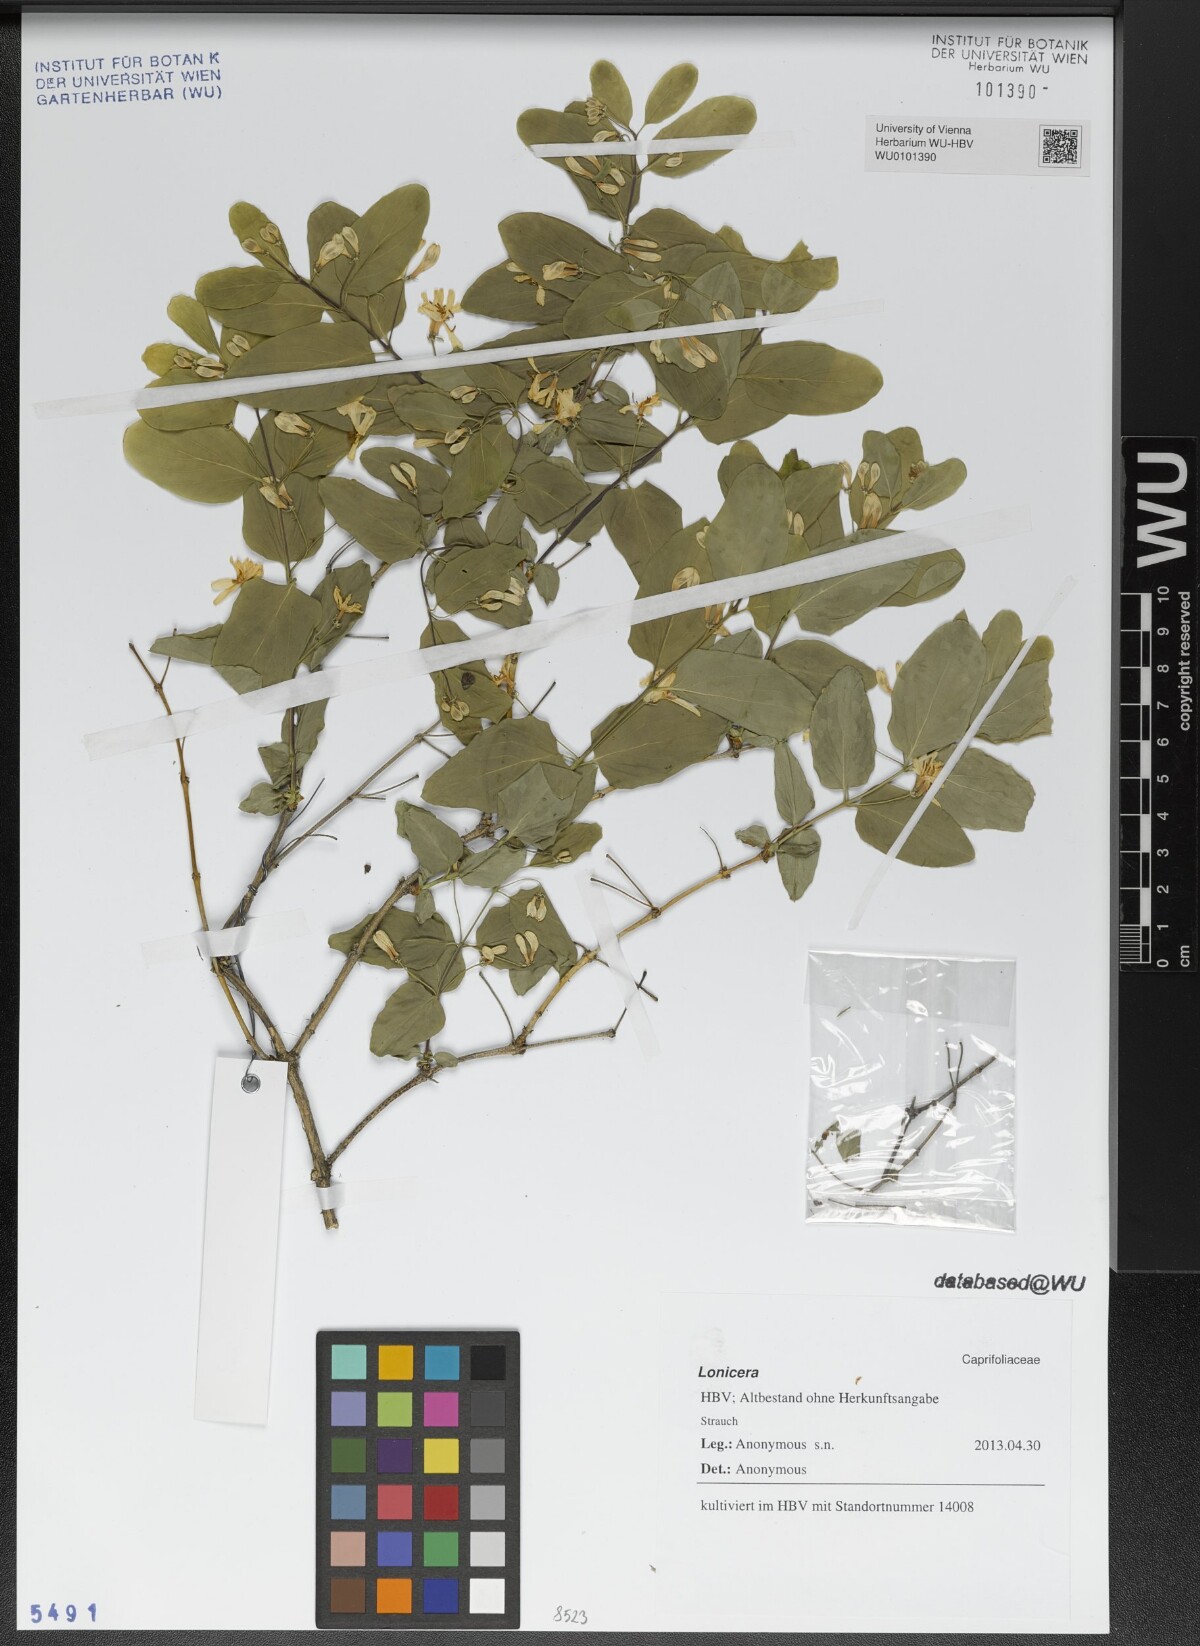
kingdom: Plantae
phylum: Tracheophyta
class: Magnoliopsida
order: Dipsacales
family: Caprifoliaceae
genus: Lonicera
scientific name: Lonicera
